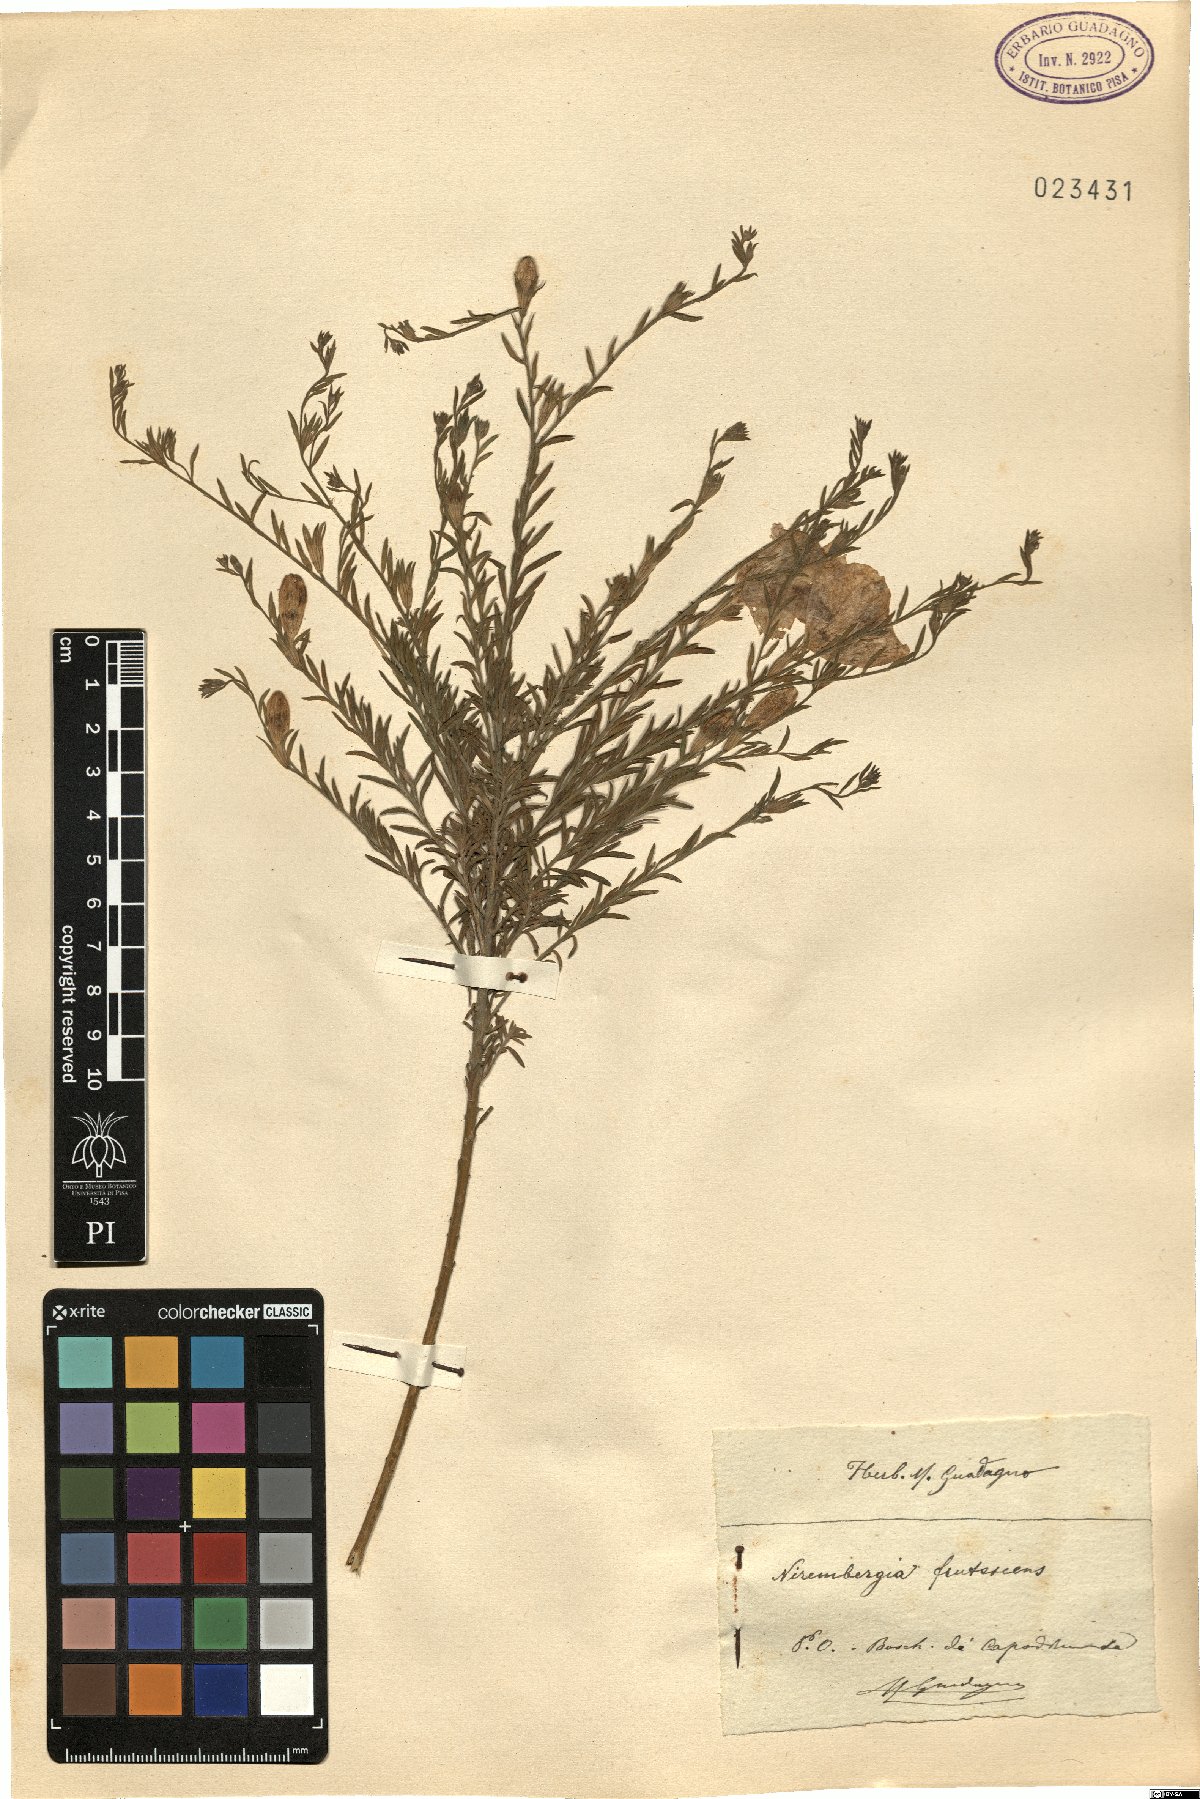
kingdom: Plantae
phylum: Tracheophyta
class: Magnoliopsida
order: Solanales
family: Solanaceae
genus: Nierembergia
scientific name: Nierembergia scoparia
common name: Broom cupflower
